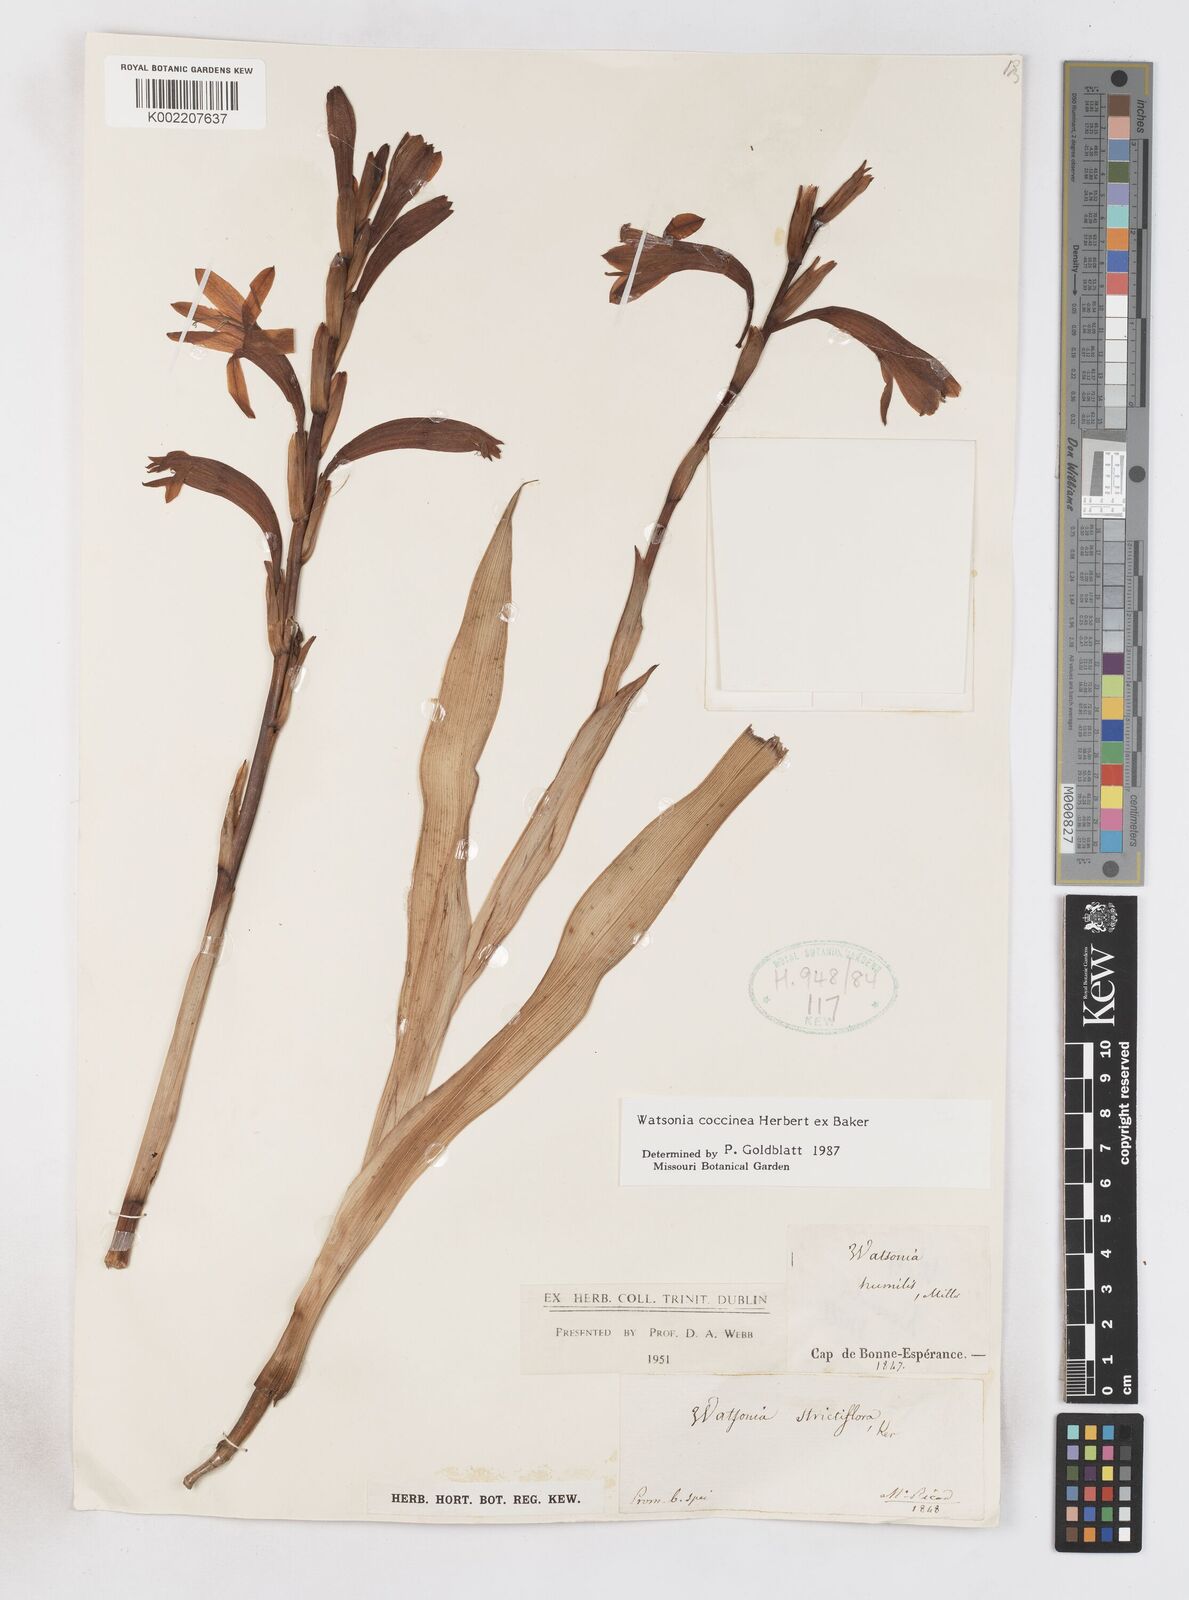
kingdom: Plantae
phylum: Tracheophyta
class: Liliopsida
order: Asparagales
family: Iridaceae
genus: Watsonia
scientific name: Watsonia coccinea
